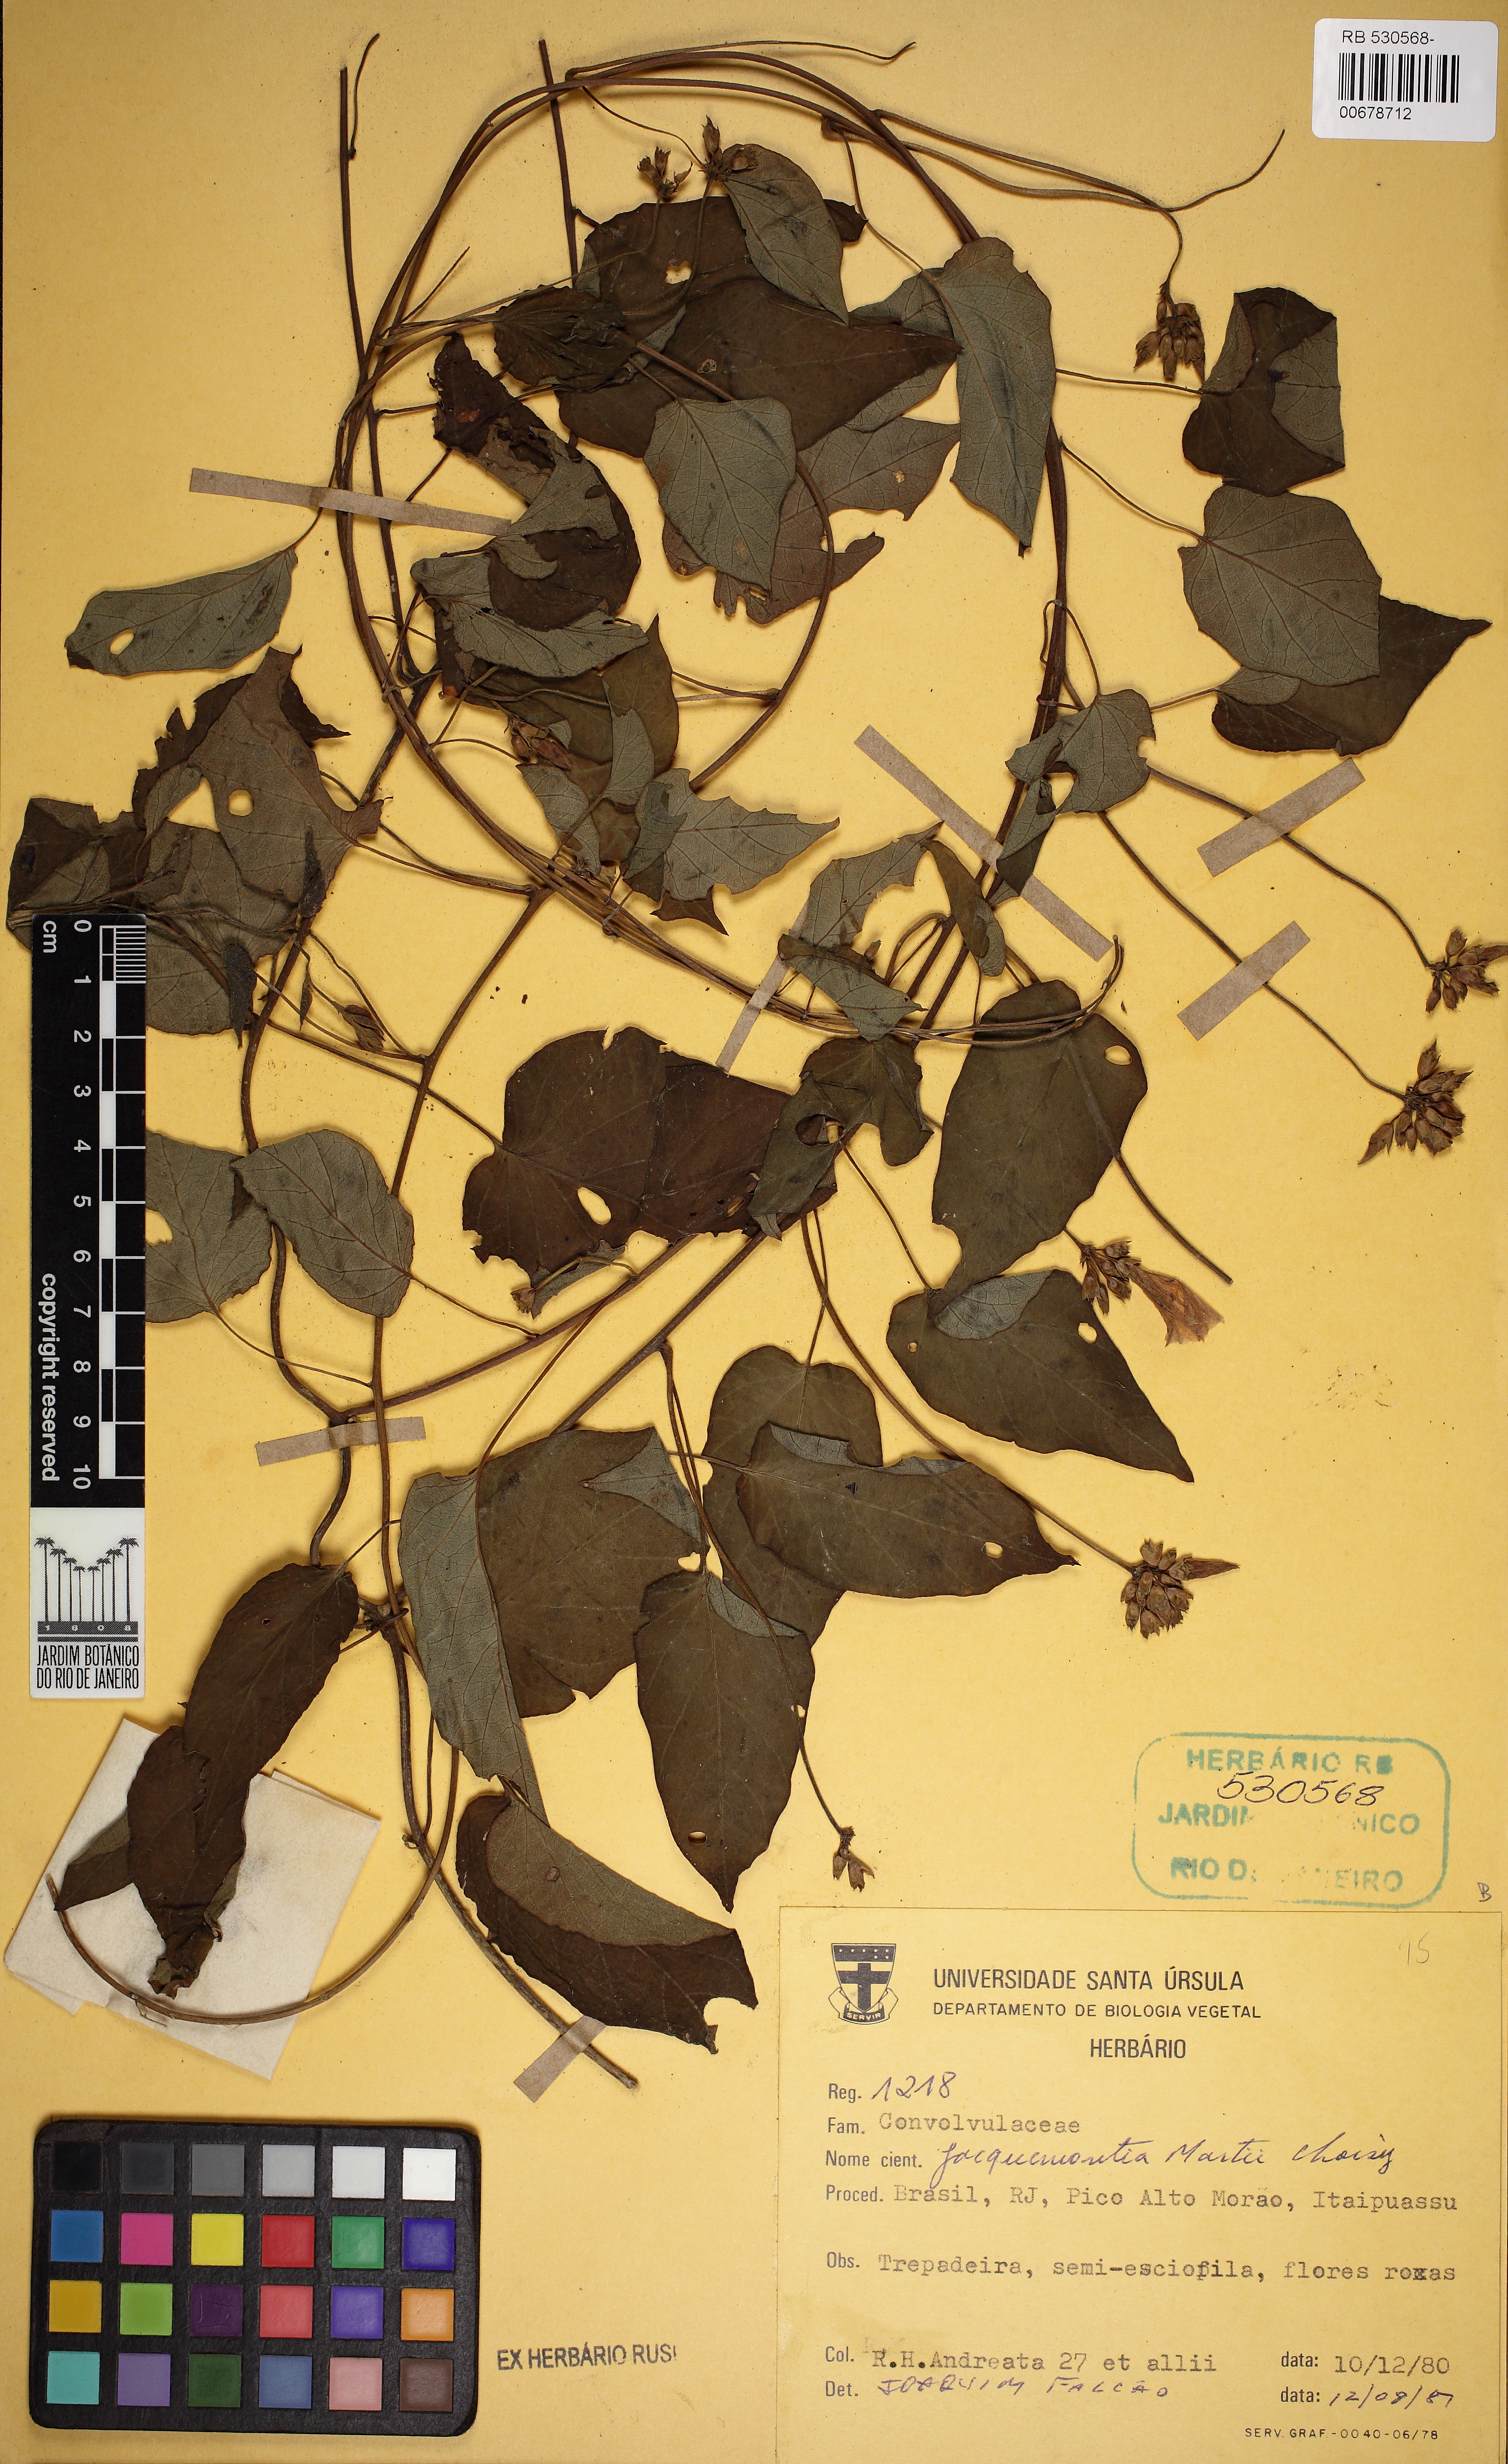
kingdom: Plantae
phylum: Tracheophyta
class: Magnoliopsida
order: Solanales
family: Convolvulaceae
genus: Jacquemontia
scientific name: Jacquemontia blanchetii
